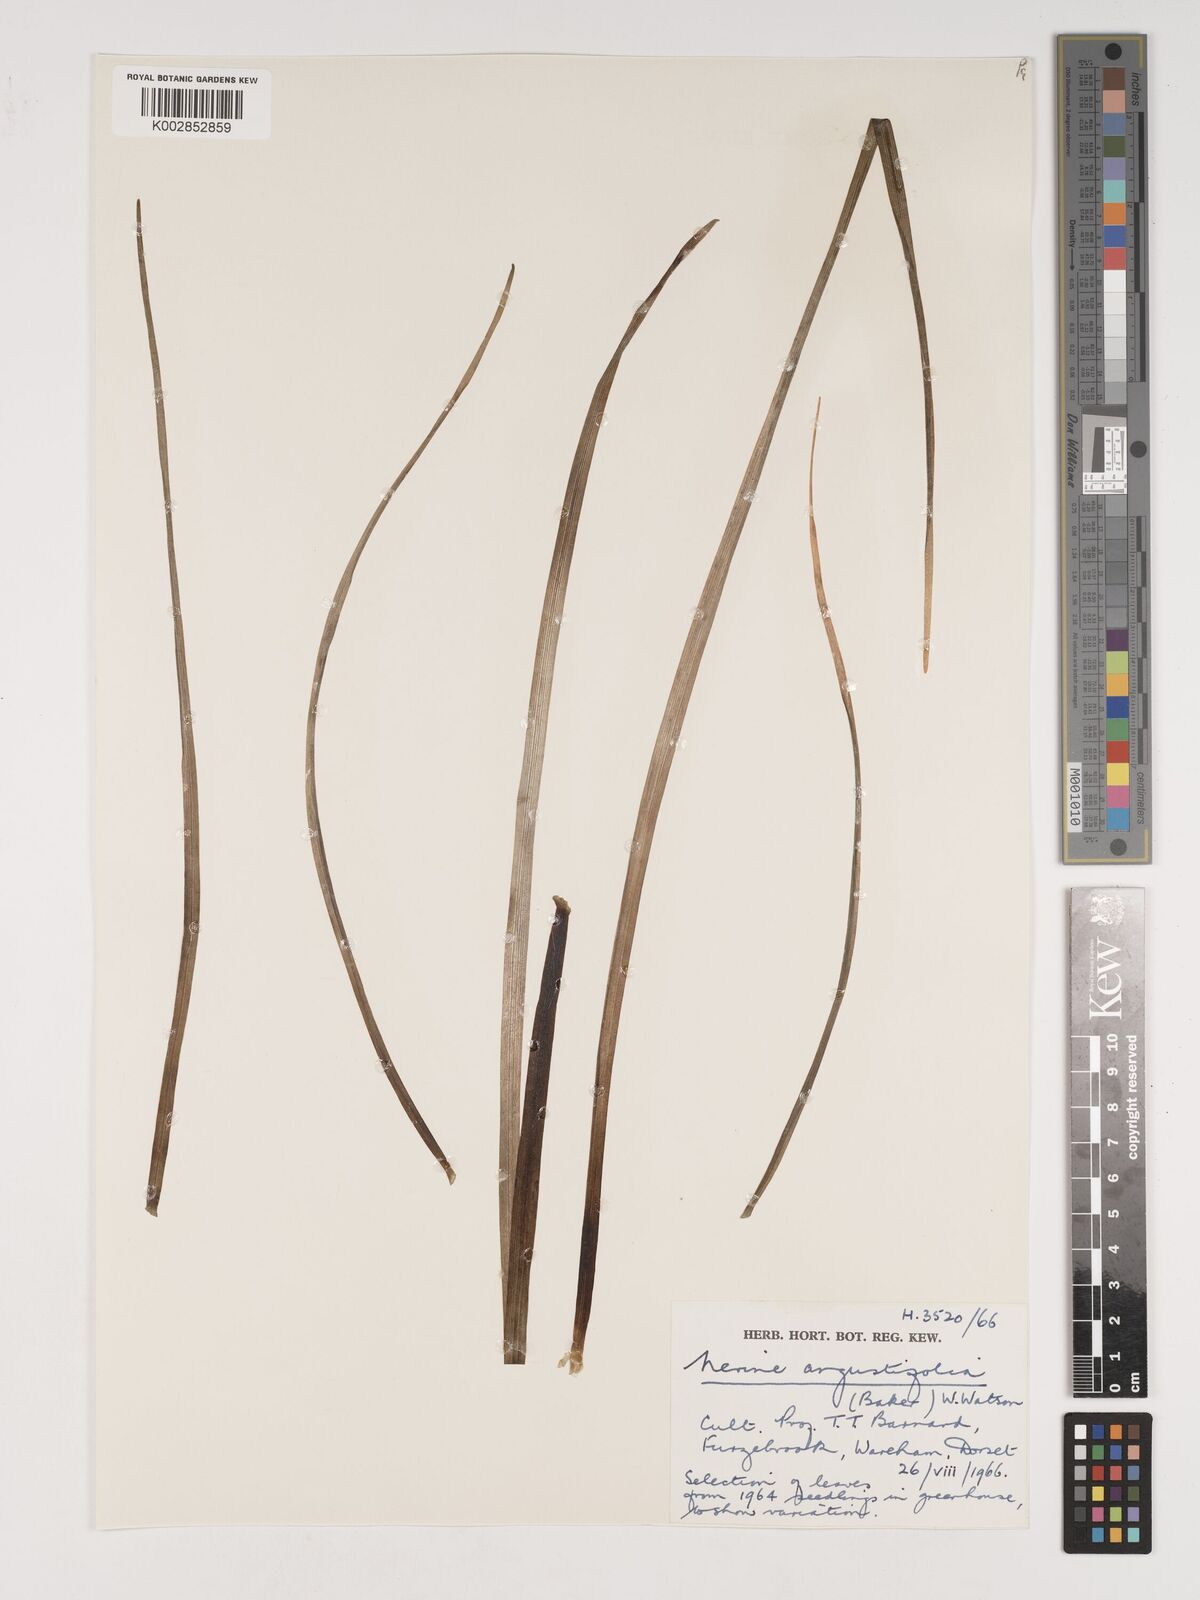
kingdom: Plantae
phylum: Tracheophyta
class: Liliopsida
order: Asparagales
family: Amaryllidaceae
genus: Nerine
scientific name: Nerine angustifolia
